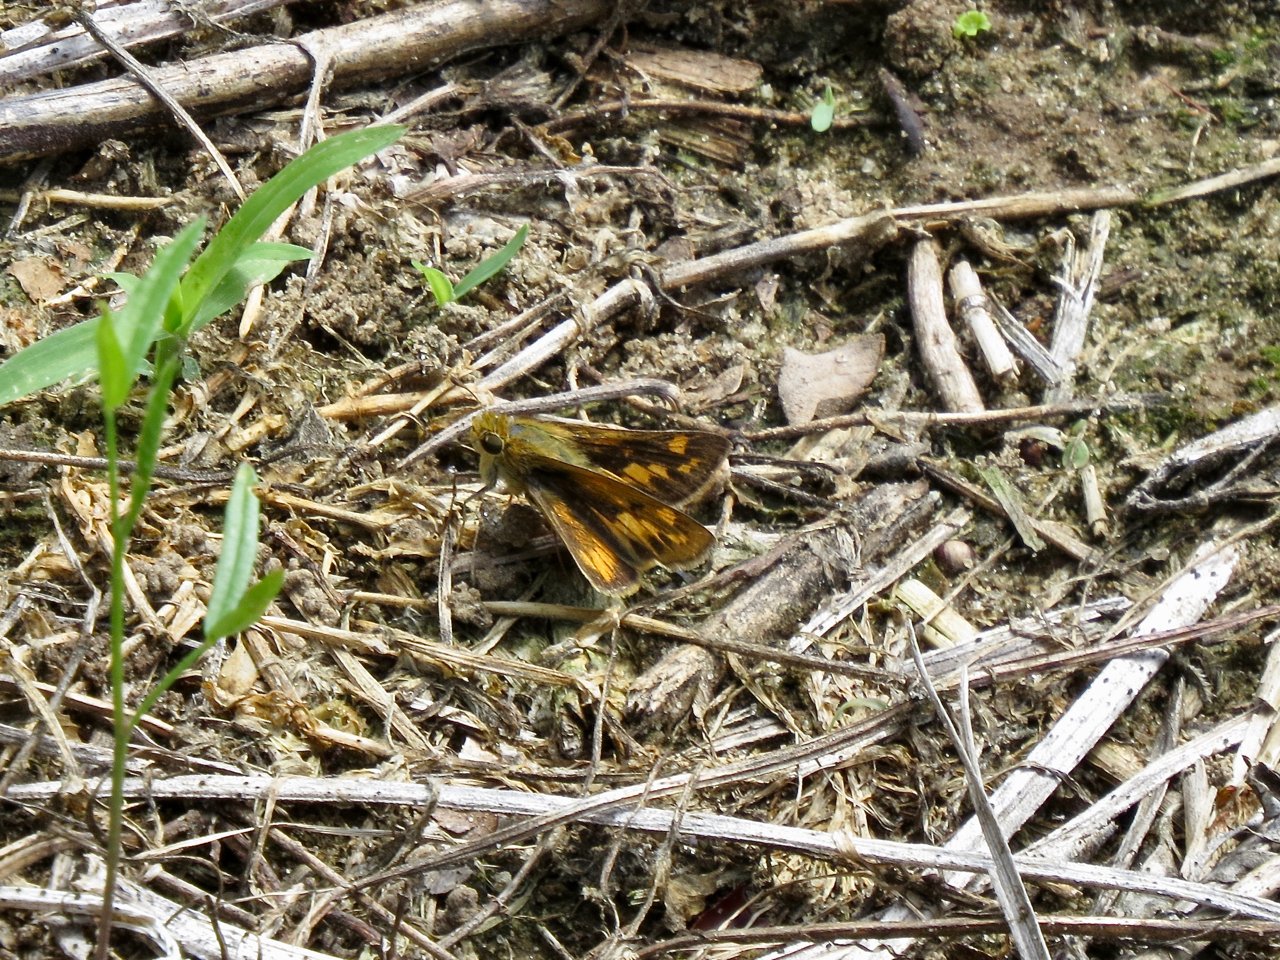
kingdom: Animalia
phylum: Arthropoda
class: Insecta
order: Lepidoptera
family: Hesperiidae
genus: Poanes
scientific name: Poanes viator
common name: Broad-winged Skipper
